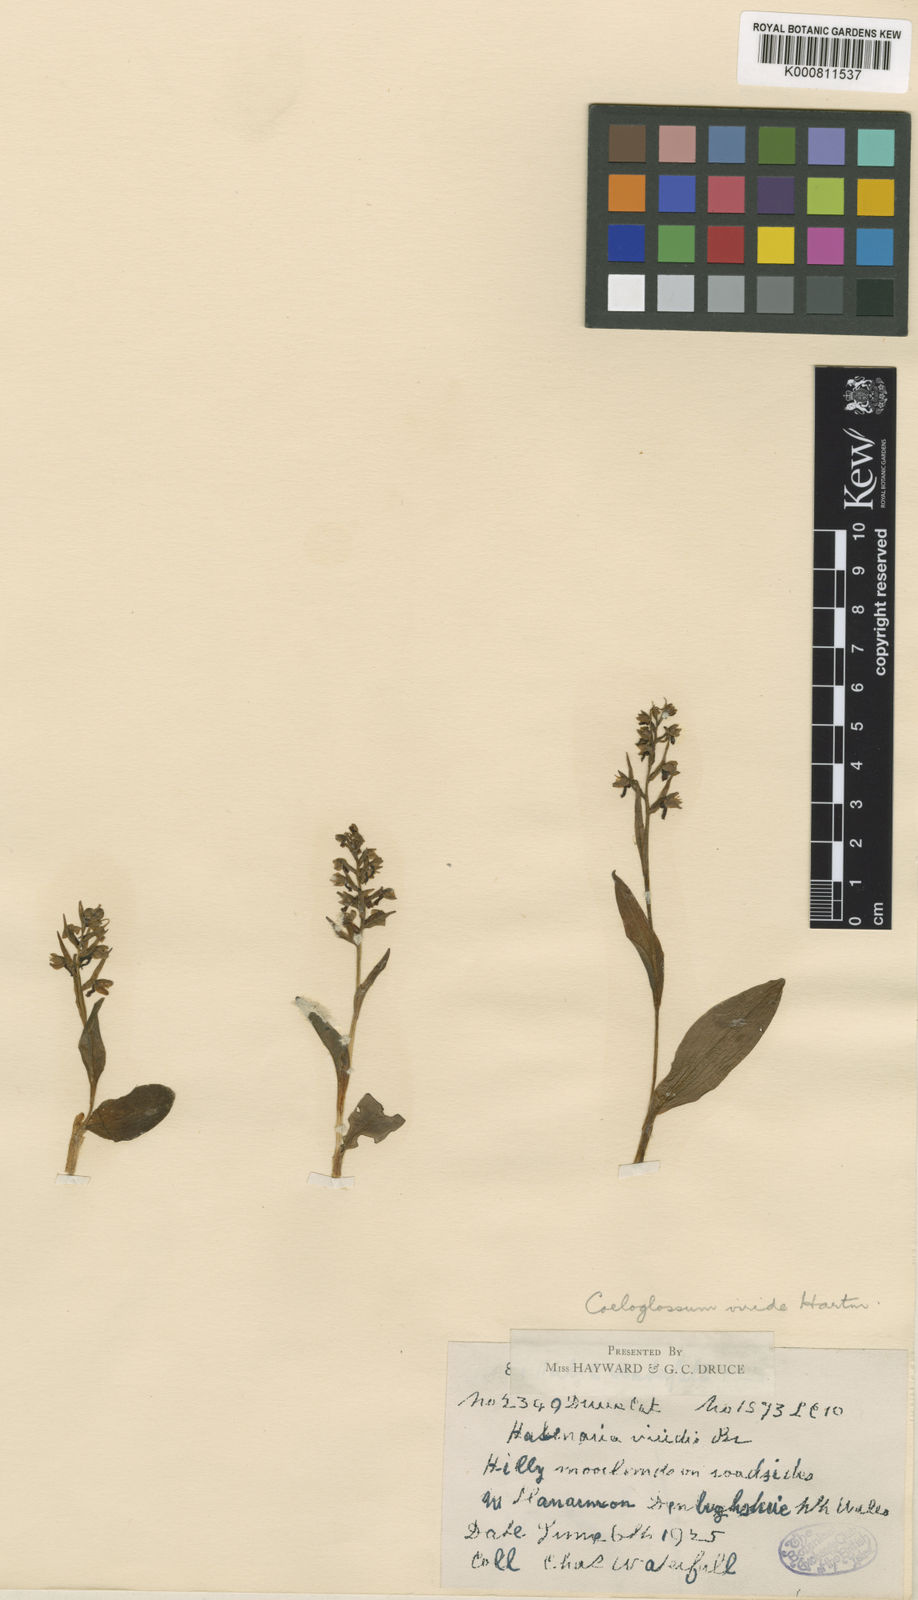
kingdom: Plantae
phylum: Tracheophyta
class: Liliopsida
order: Asparagales
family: Orchidaceae
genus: Dactylorhiza
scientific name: Dactylorhiza viridis
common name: Longbract frog orchid
